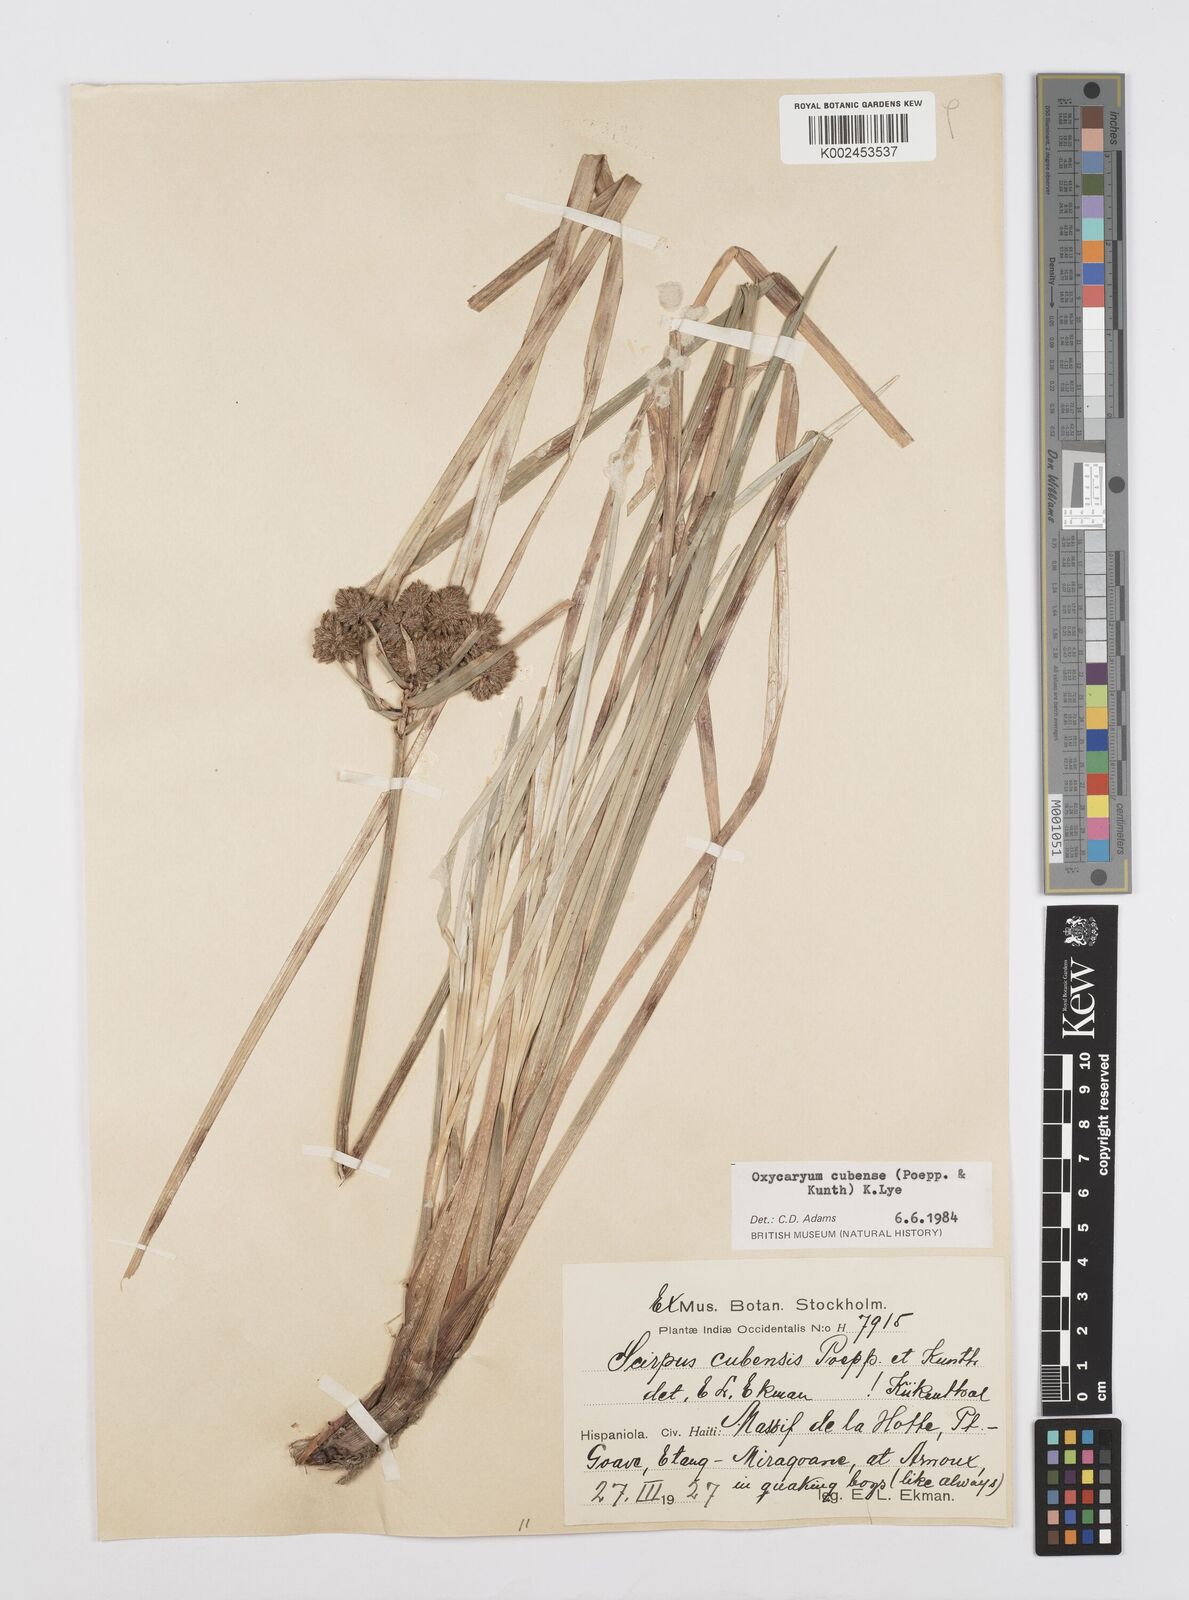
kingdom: Plantae
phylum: Tracheophyta
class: Liliopsida
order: Poales
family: Cyperaceae
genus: Cyperus
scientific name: Cyperus elegans
